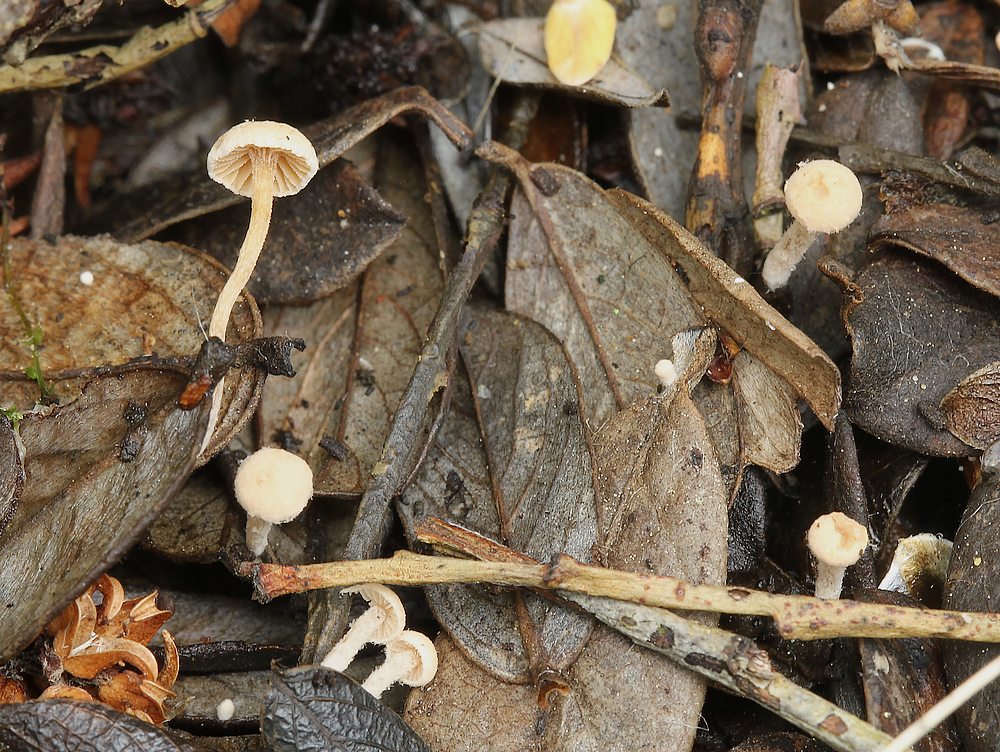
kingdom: Fungi
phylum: Basidiomycota
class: Agaricomycetes
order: Agaricales
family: Tubariaceae
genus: Flammulaster
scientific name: Flammulaster carpophilus
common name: bøge-grynskælhat
